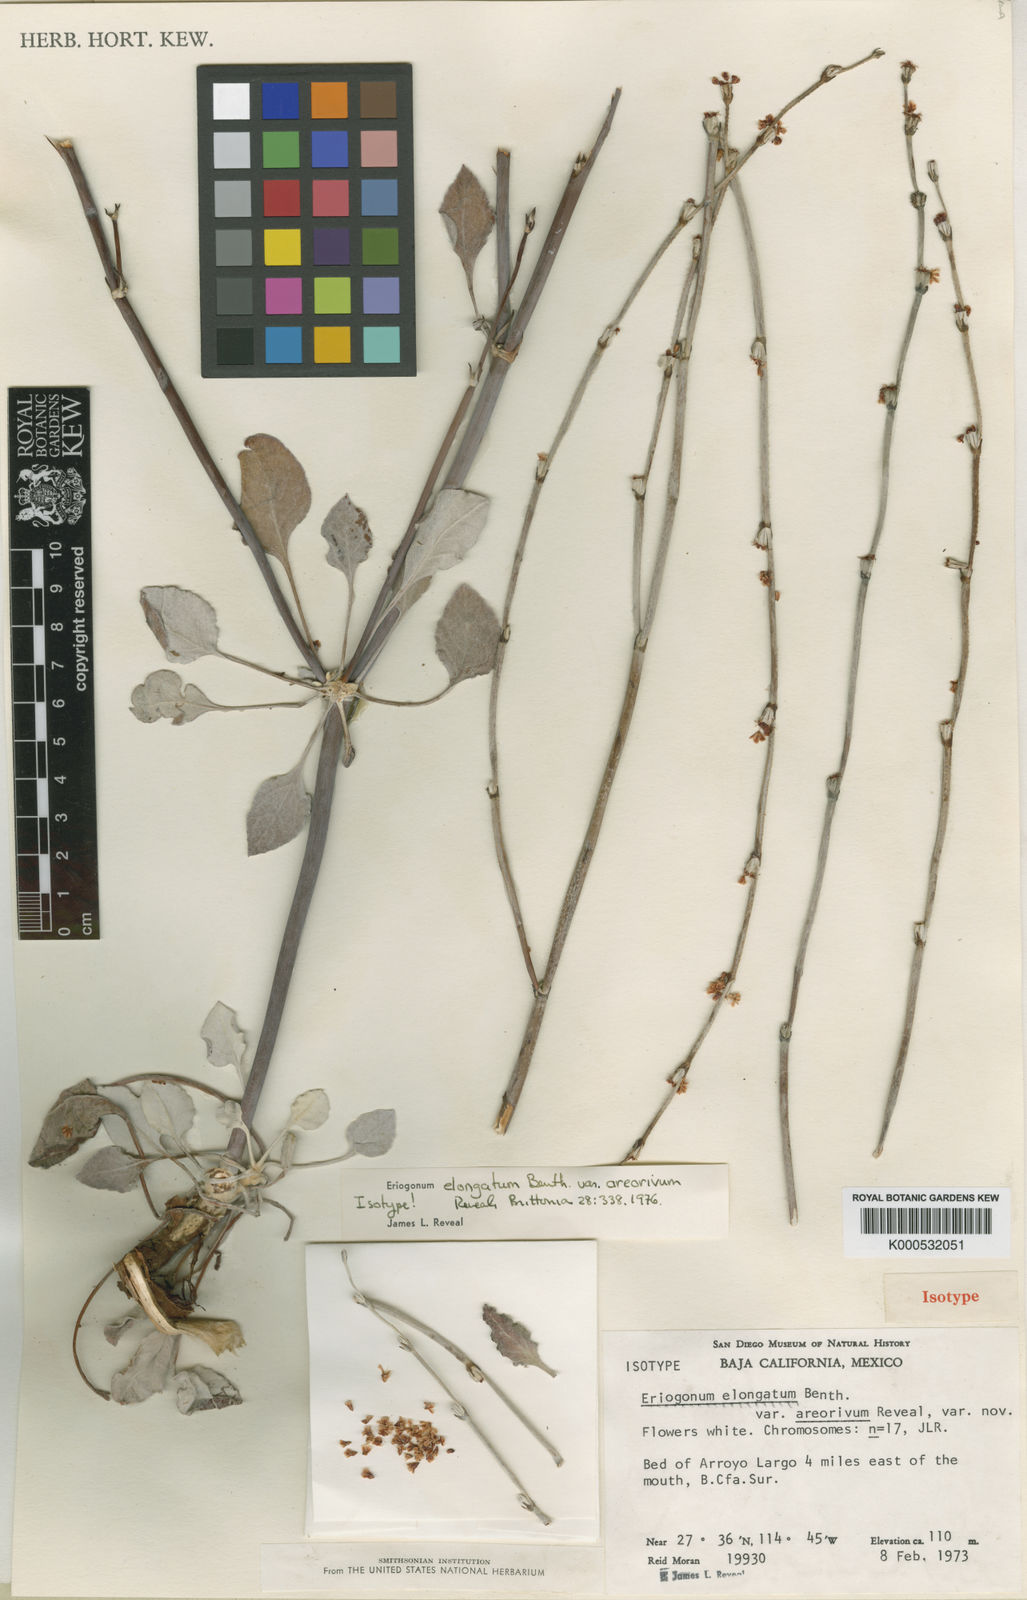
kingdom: Plantae
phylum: Tracheophyta
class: Magnoliopsida
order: Caryophyllales
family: Polygonaceae
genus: Eriogonum
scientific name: Eriogonum elongatum
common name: Long-stem wild buckwheat
